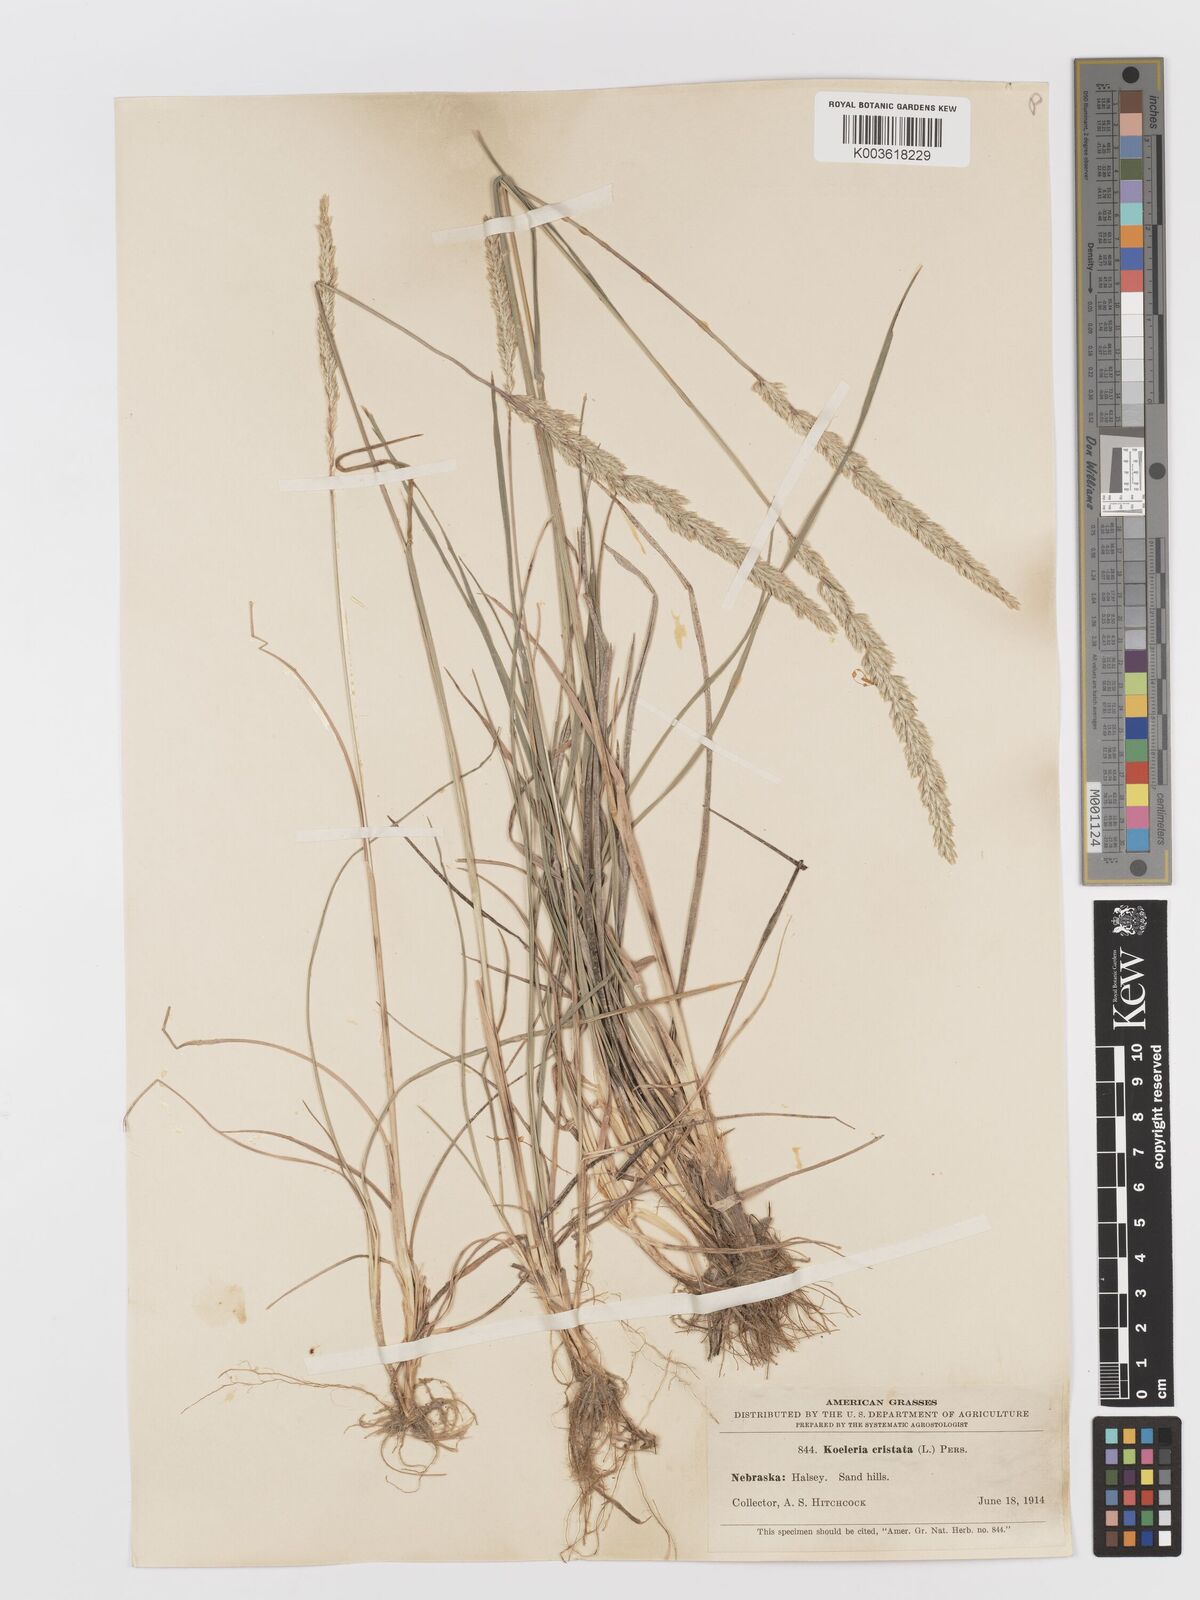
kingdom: Plantae
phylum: Tracheophyta
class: Liliopsida
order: Poales
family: Poaceae
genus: Koeleria
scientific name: Koeleria macrantha
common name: Crested hair-grass
